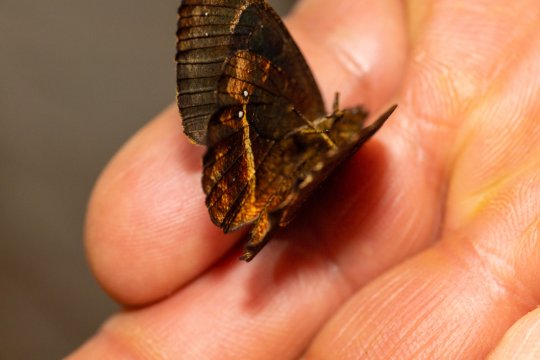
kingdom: Animalia
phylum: Arthropoda
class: Insecta
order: Lepidoptera
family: Nymphalidae
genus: Pedaliodes
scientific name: Pedaliodes pausia
